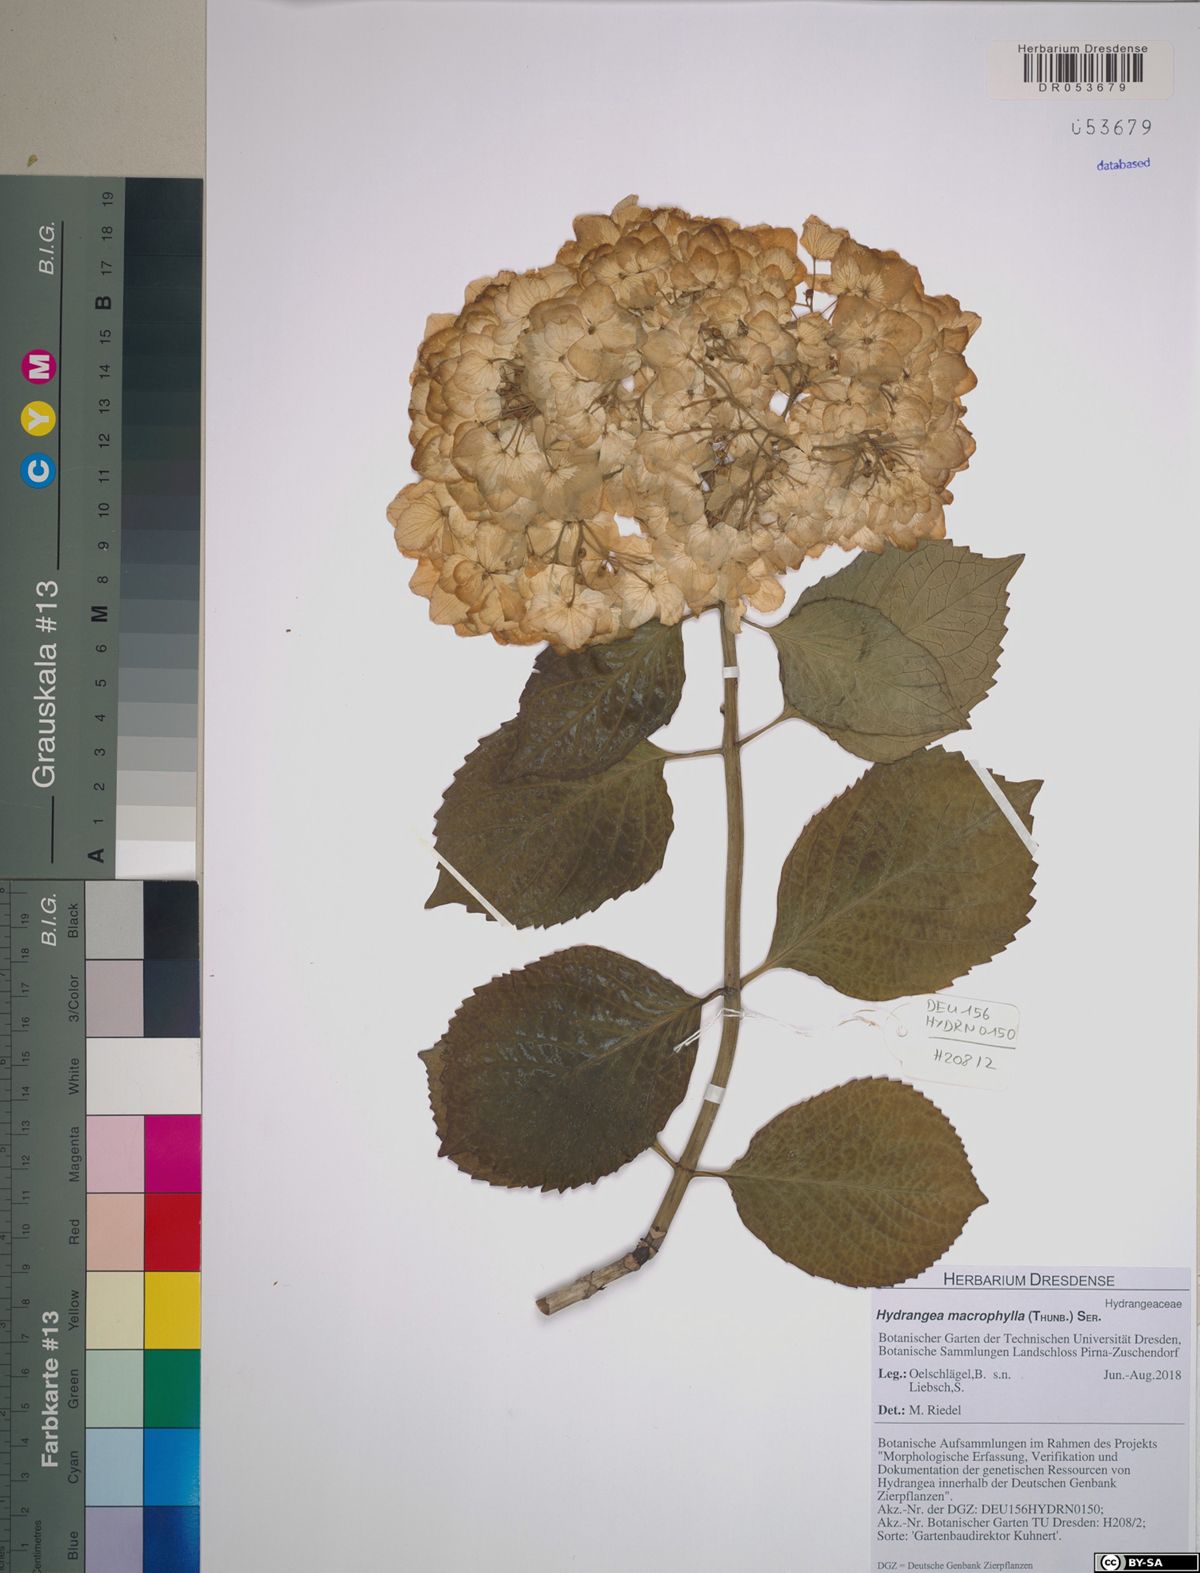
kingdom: Plantae
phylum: Tracheophyta
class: Magnoliopsida
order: Cornales
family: Hydrangeaceae
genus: Hydrangea
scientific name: Hydrangea macrophylla
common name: Hydrangea
